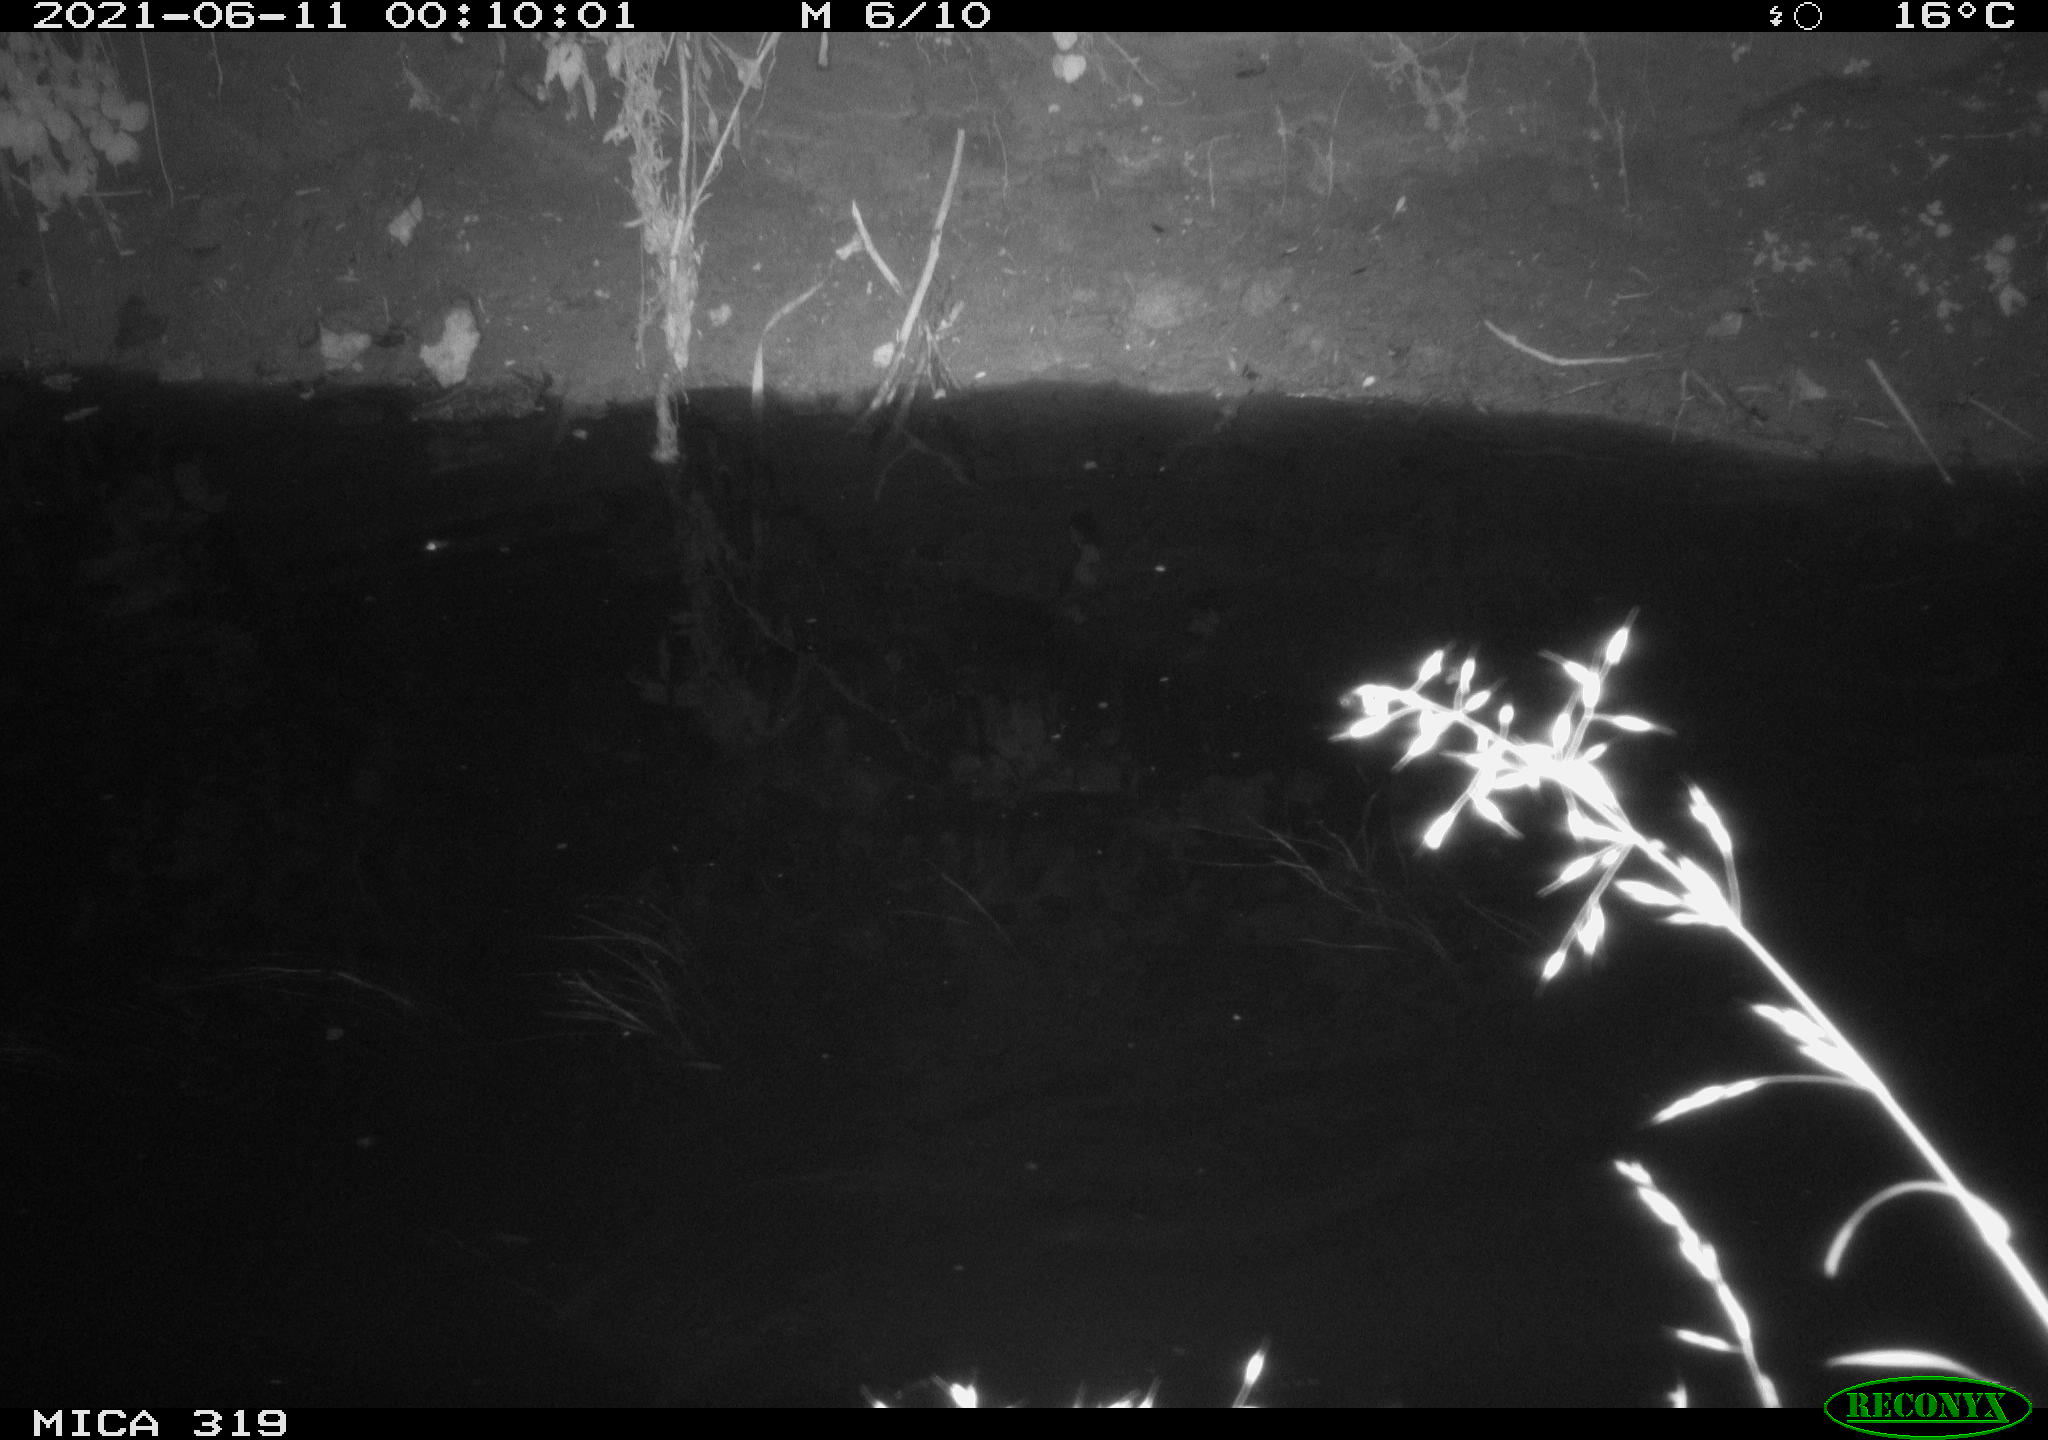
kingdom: Animalia
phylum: Chordata
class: Aves
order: Anseriformes
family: Anatidae
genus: Anas
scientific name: Anas platyrhynchos
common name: Mallard
